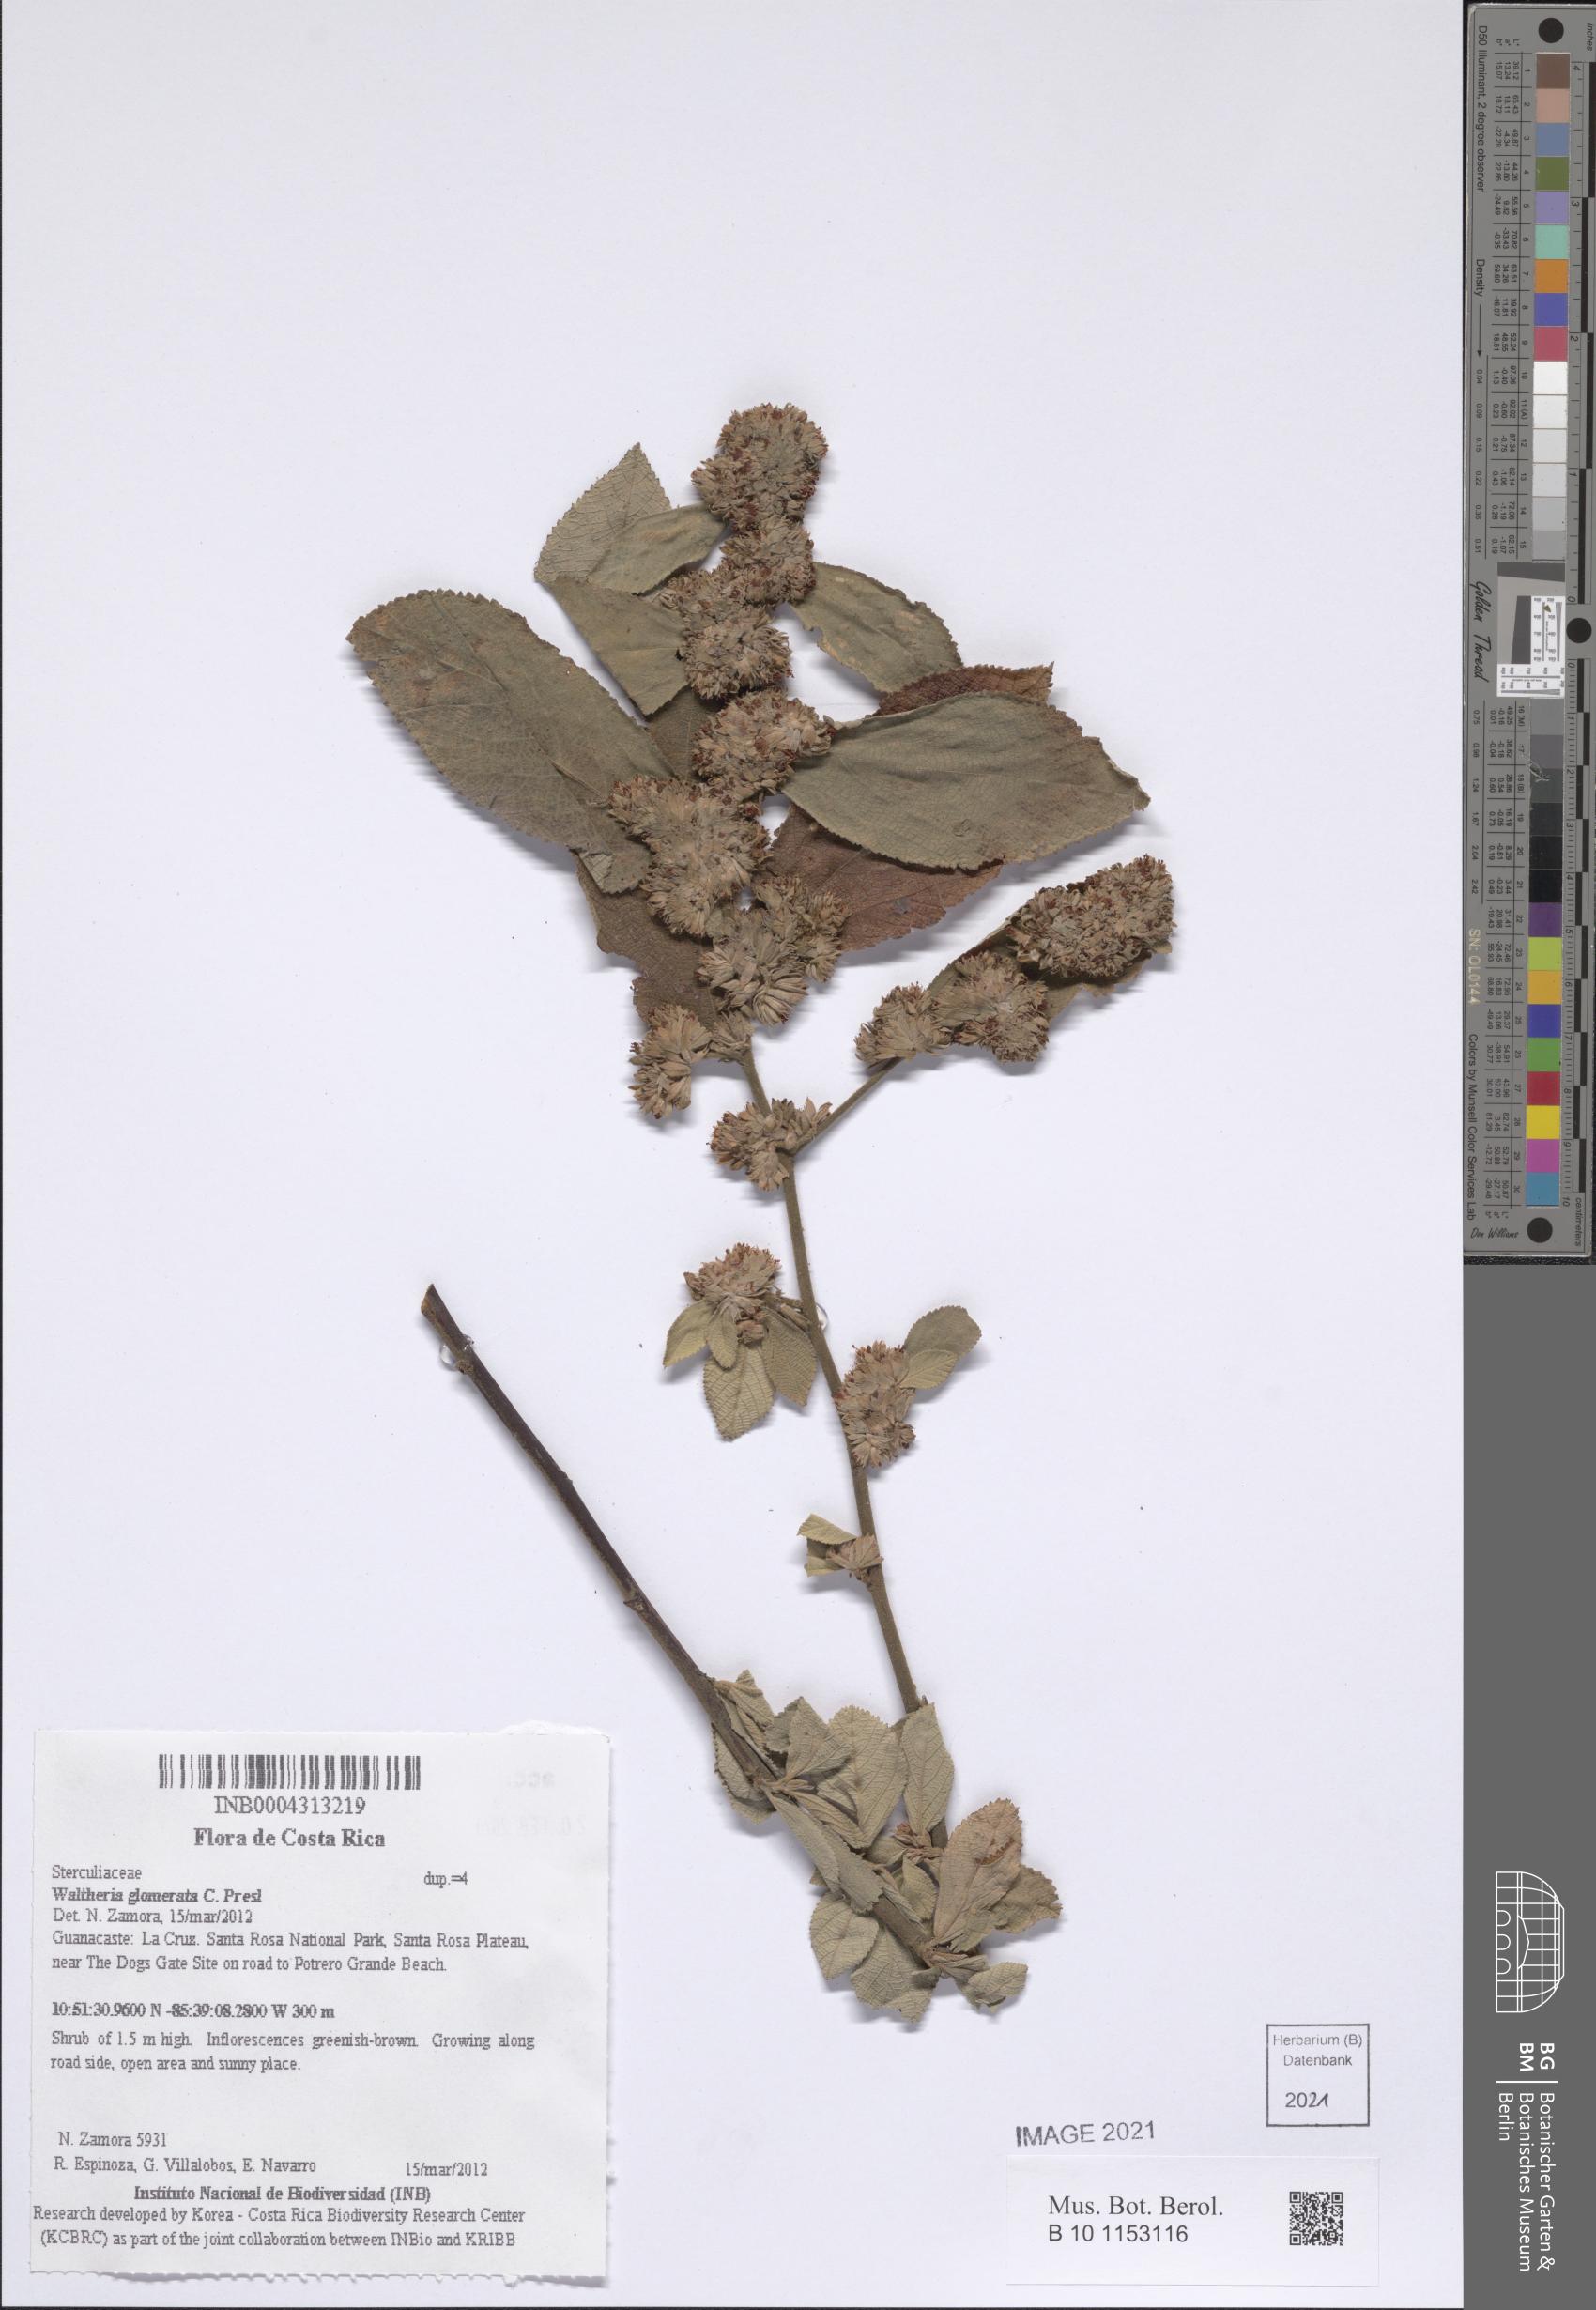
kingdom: Plantae
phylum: Tracheophyta
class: Magnoliopsida
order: Malvales
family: Malvaceae
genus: Waltheria
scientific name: Waltheria glomerata
